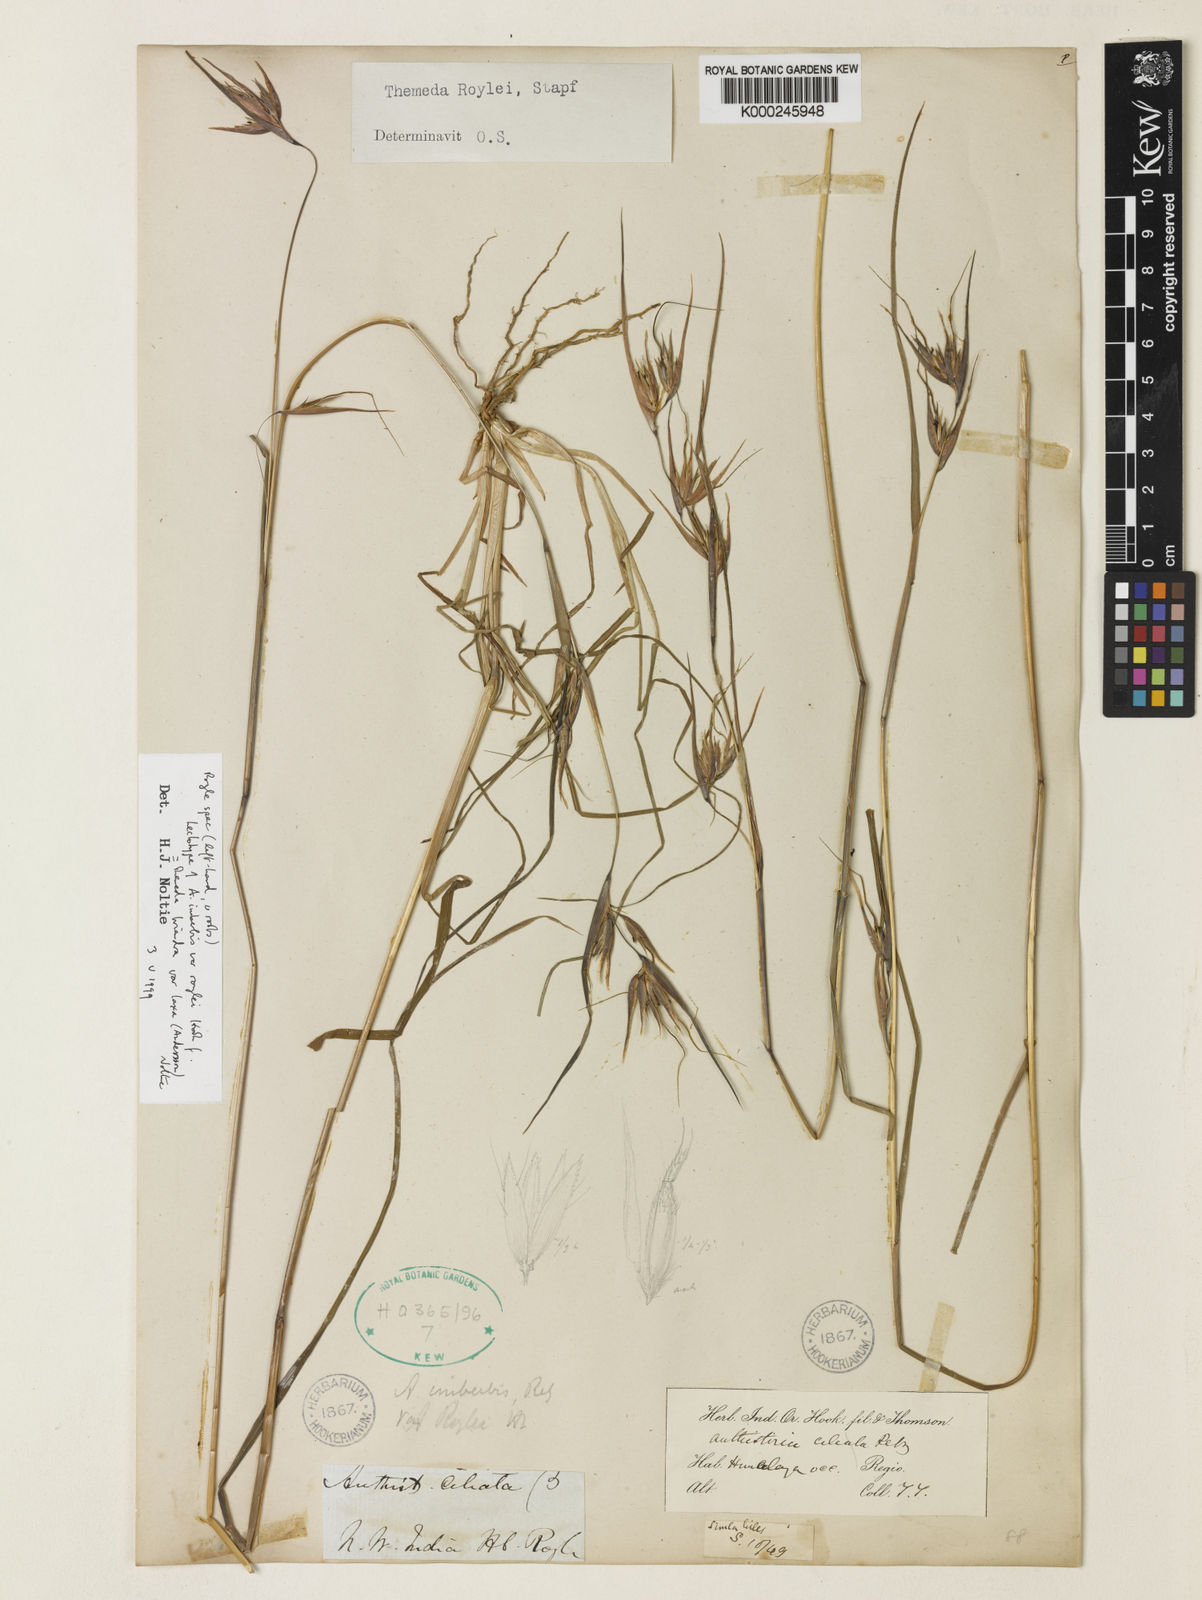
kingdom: Plantae
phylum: Tracheophyta
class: Liliopsida
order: Poales
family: Poaceae
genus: Themeda
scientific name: Themeda triandra
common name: Kangaroo grass
